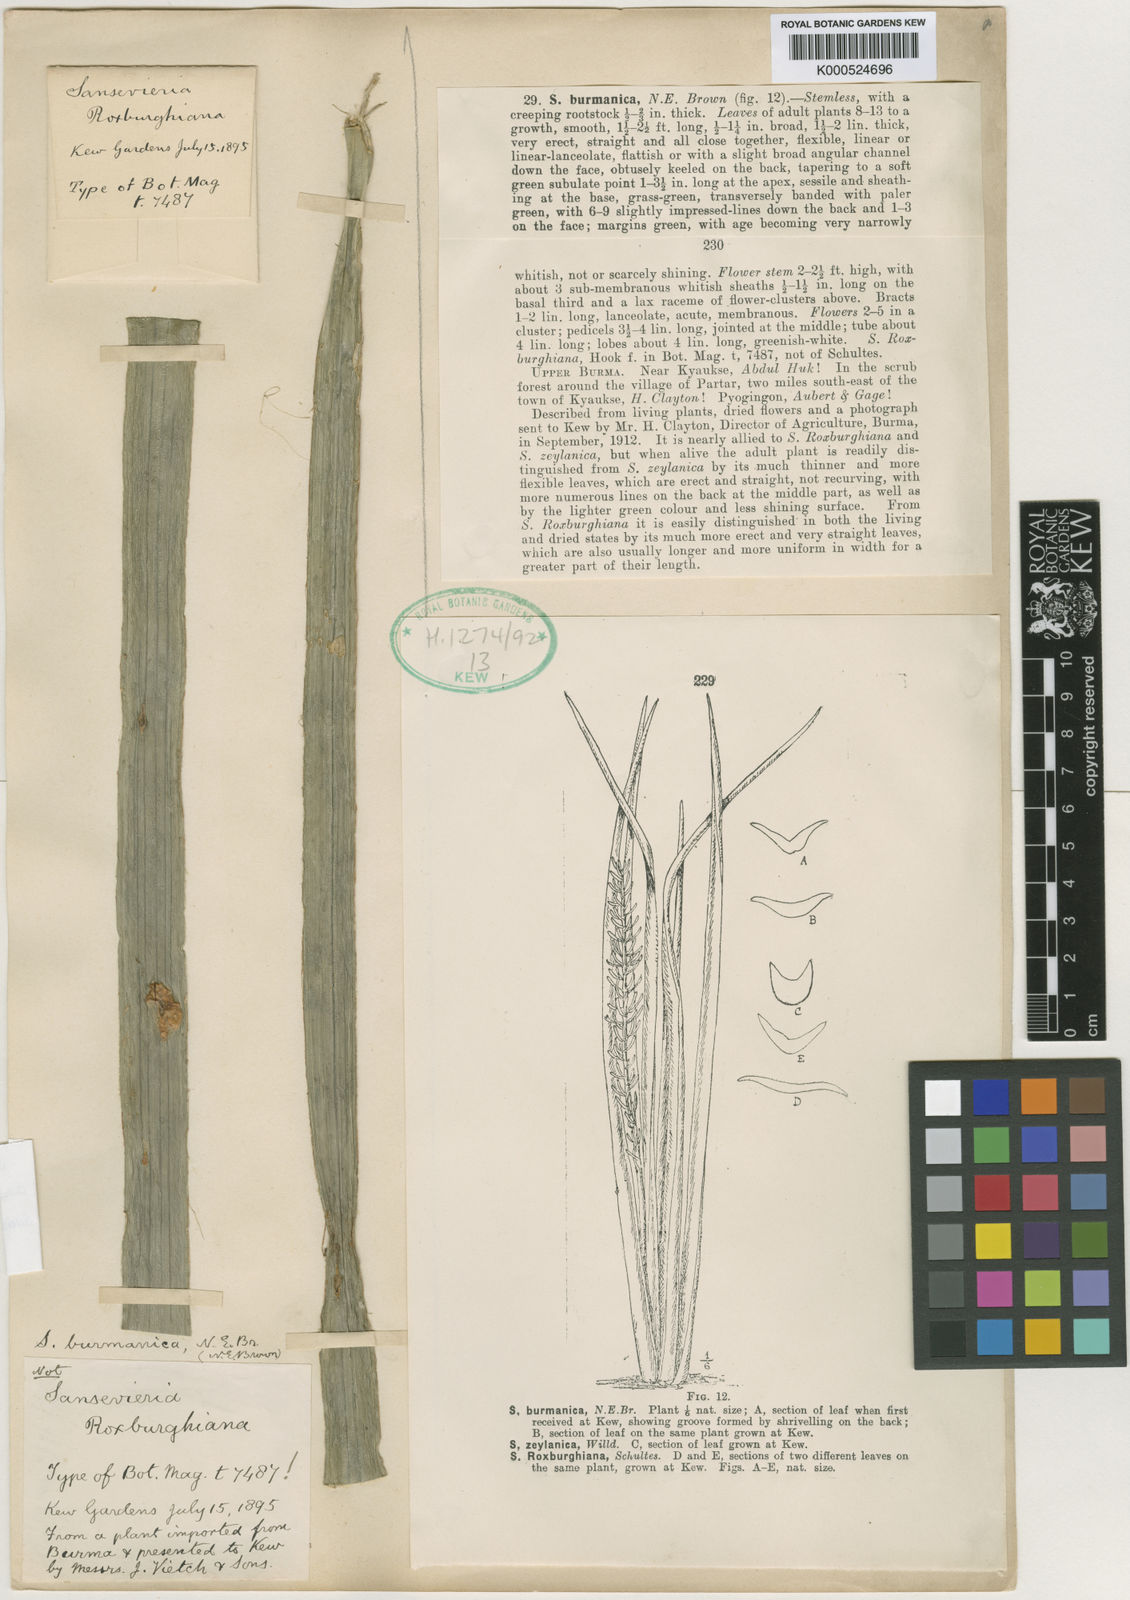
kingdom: Plantae
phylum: Tracheophyta
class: Liliopsida
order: Asparagales
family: Asparagaceae
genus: Dracaena
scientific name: Dracaena burmanica
